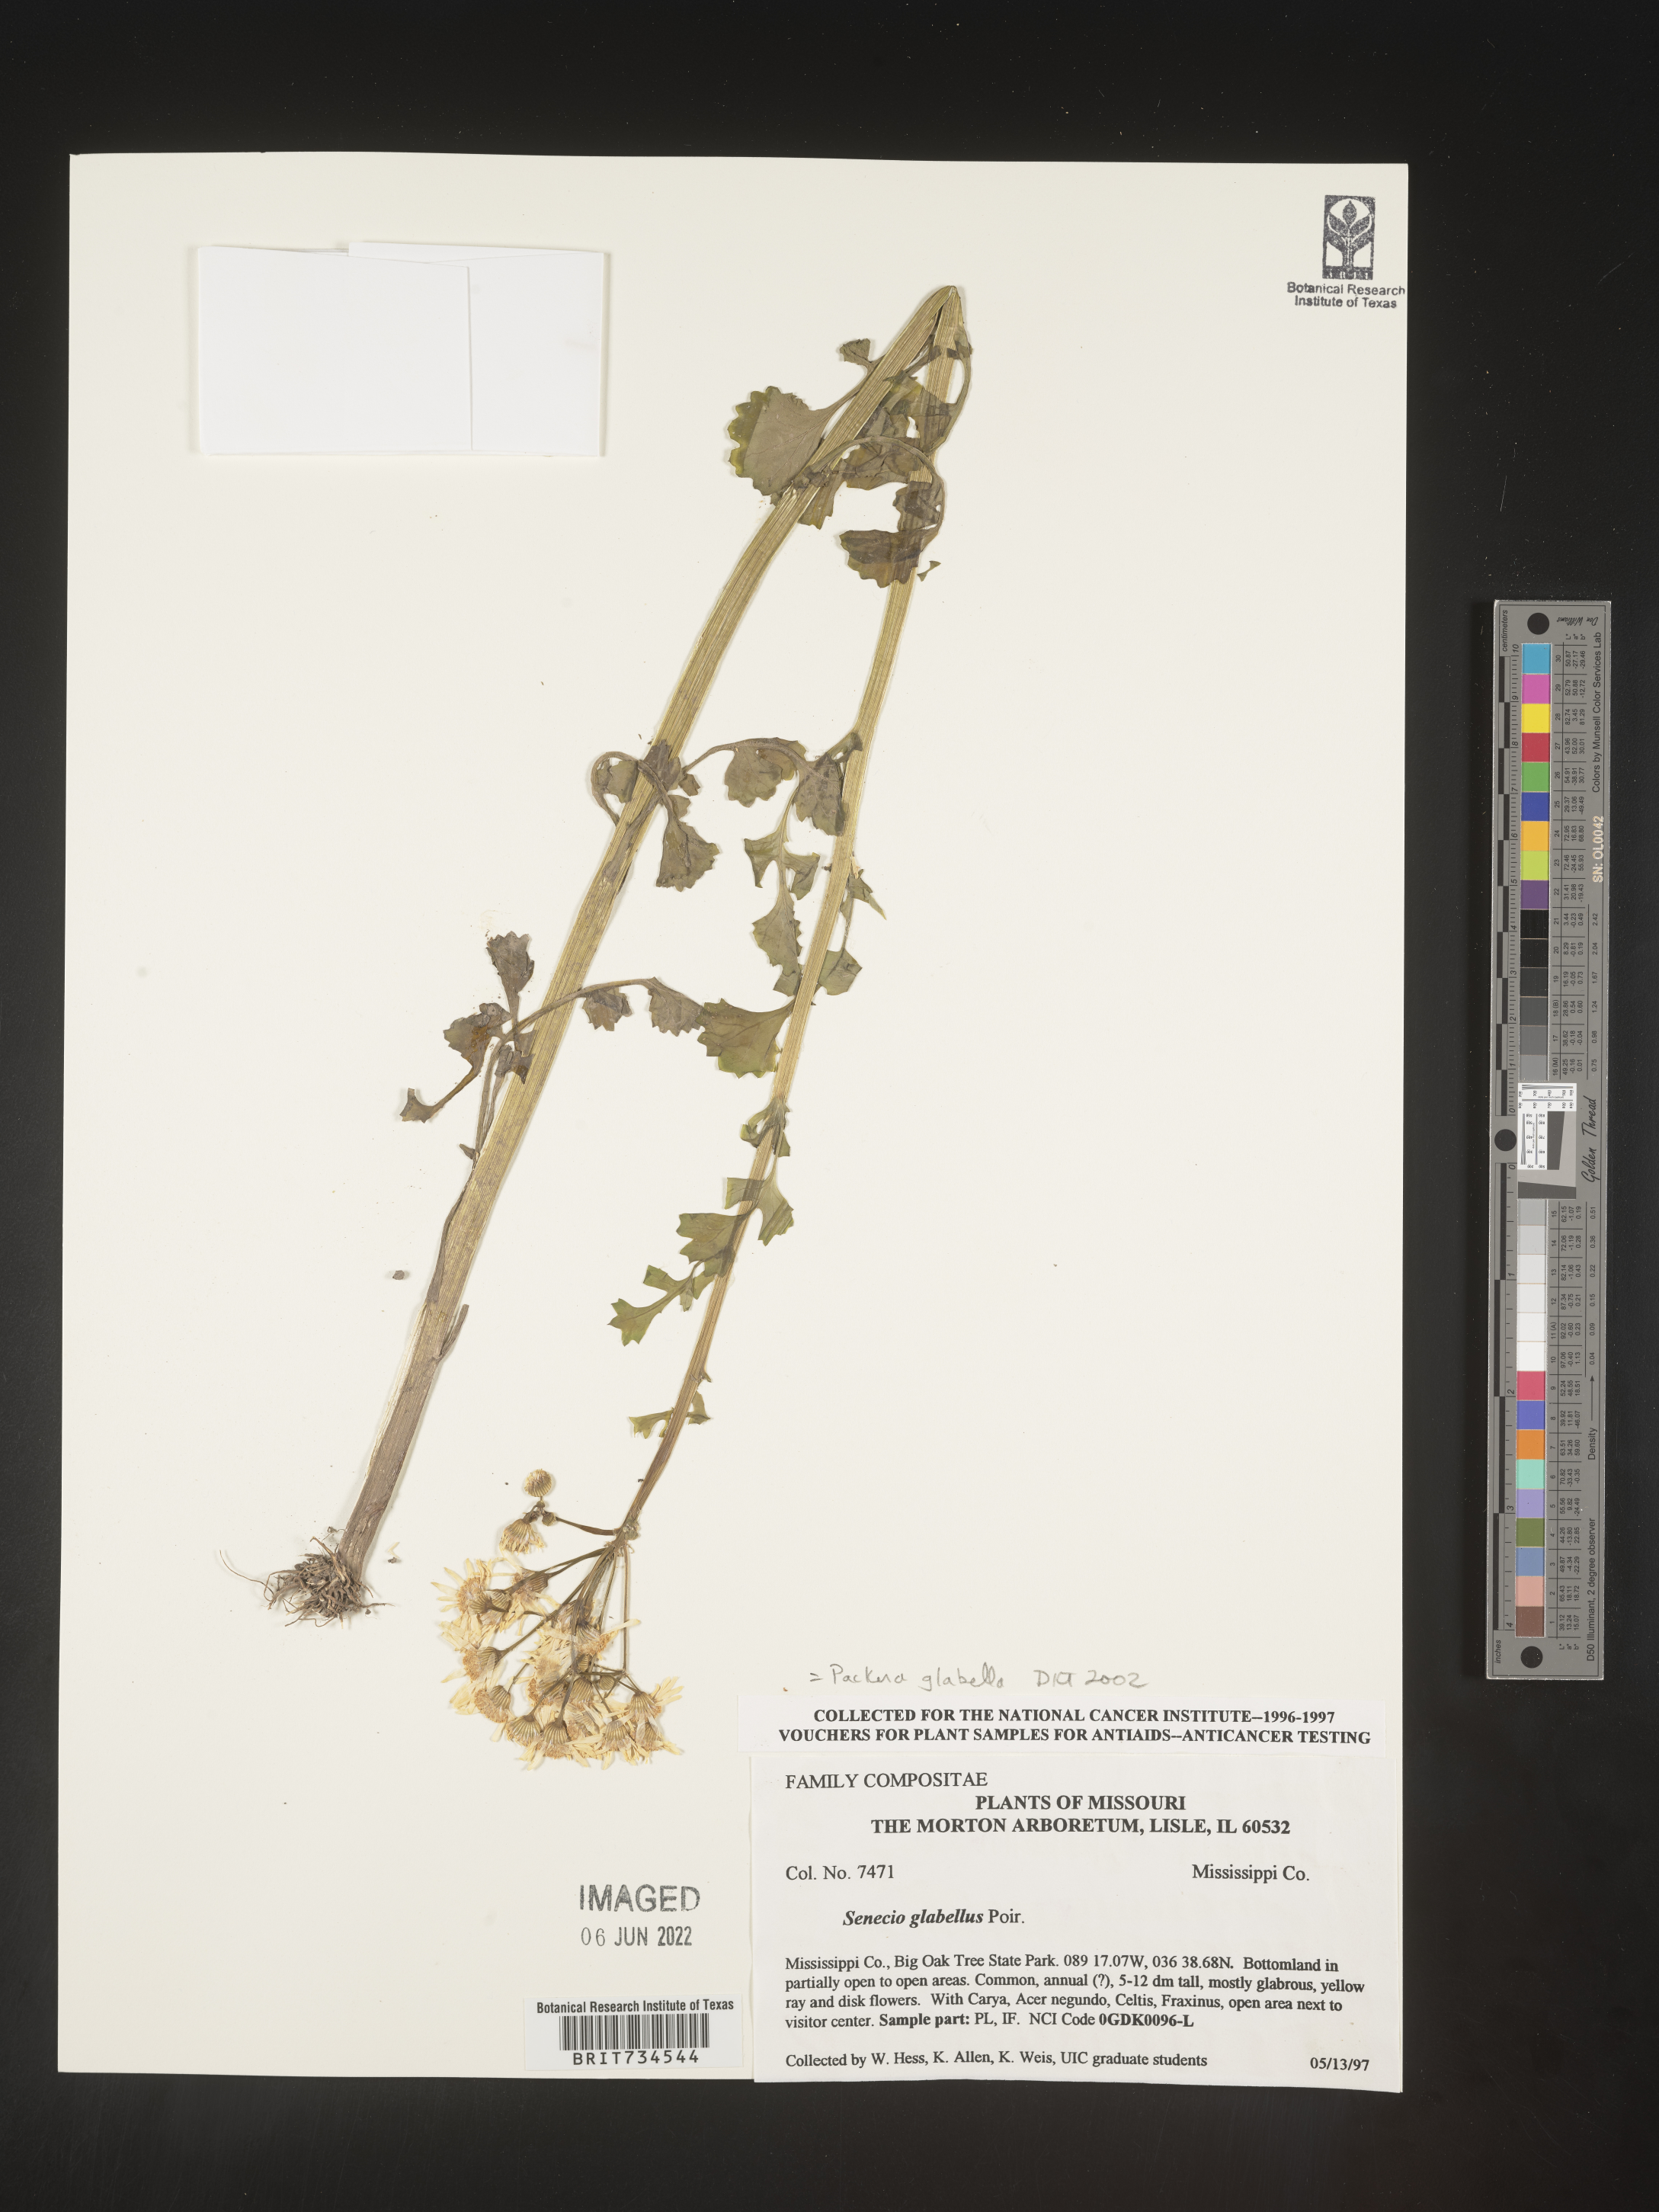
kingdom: Plantae
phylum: Tracheophyta
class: Magnoliopsida
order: Asterales
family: Asteraceae
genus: Packera
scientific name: Packera glabella
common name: Butterweed
